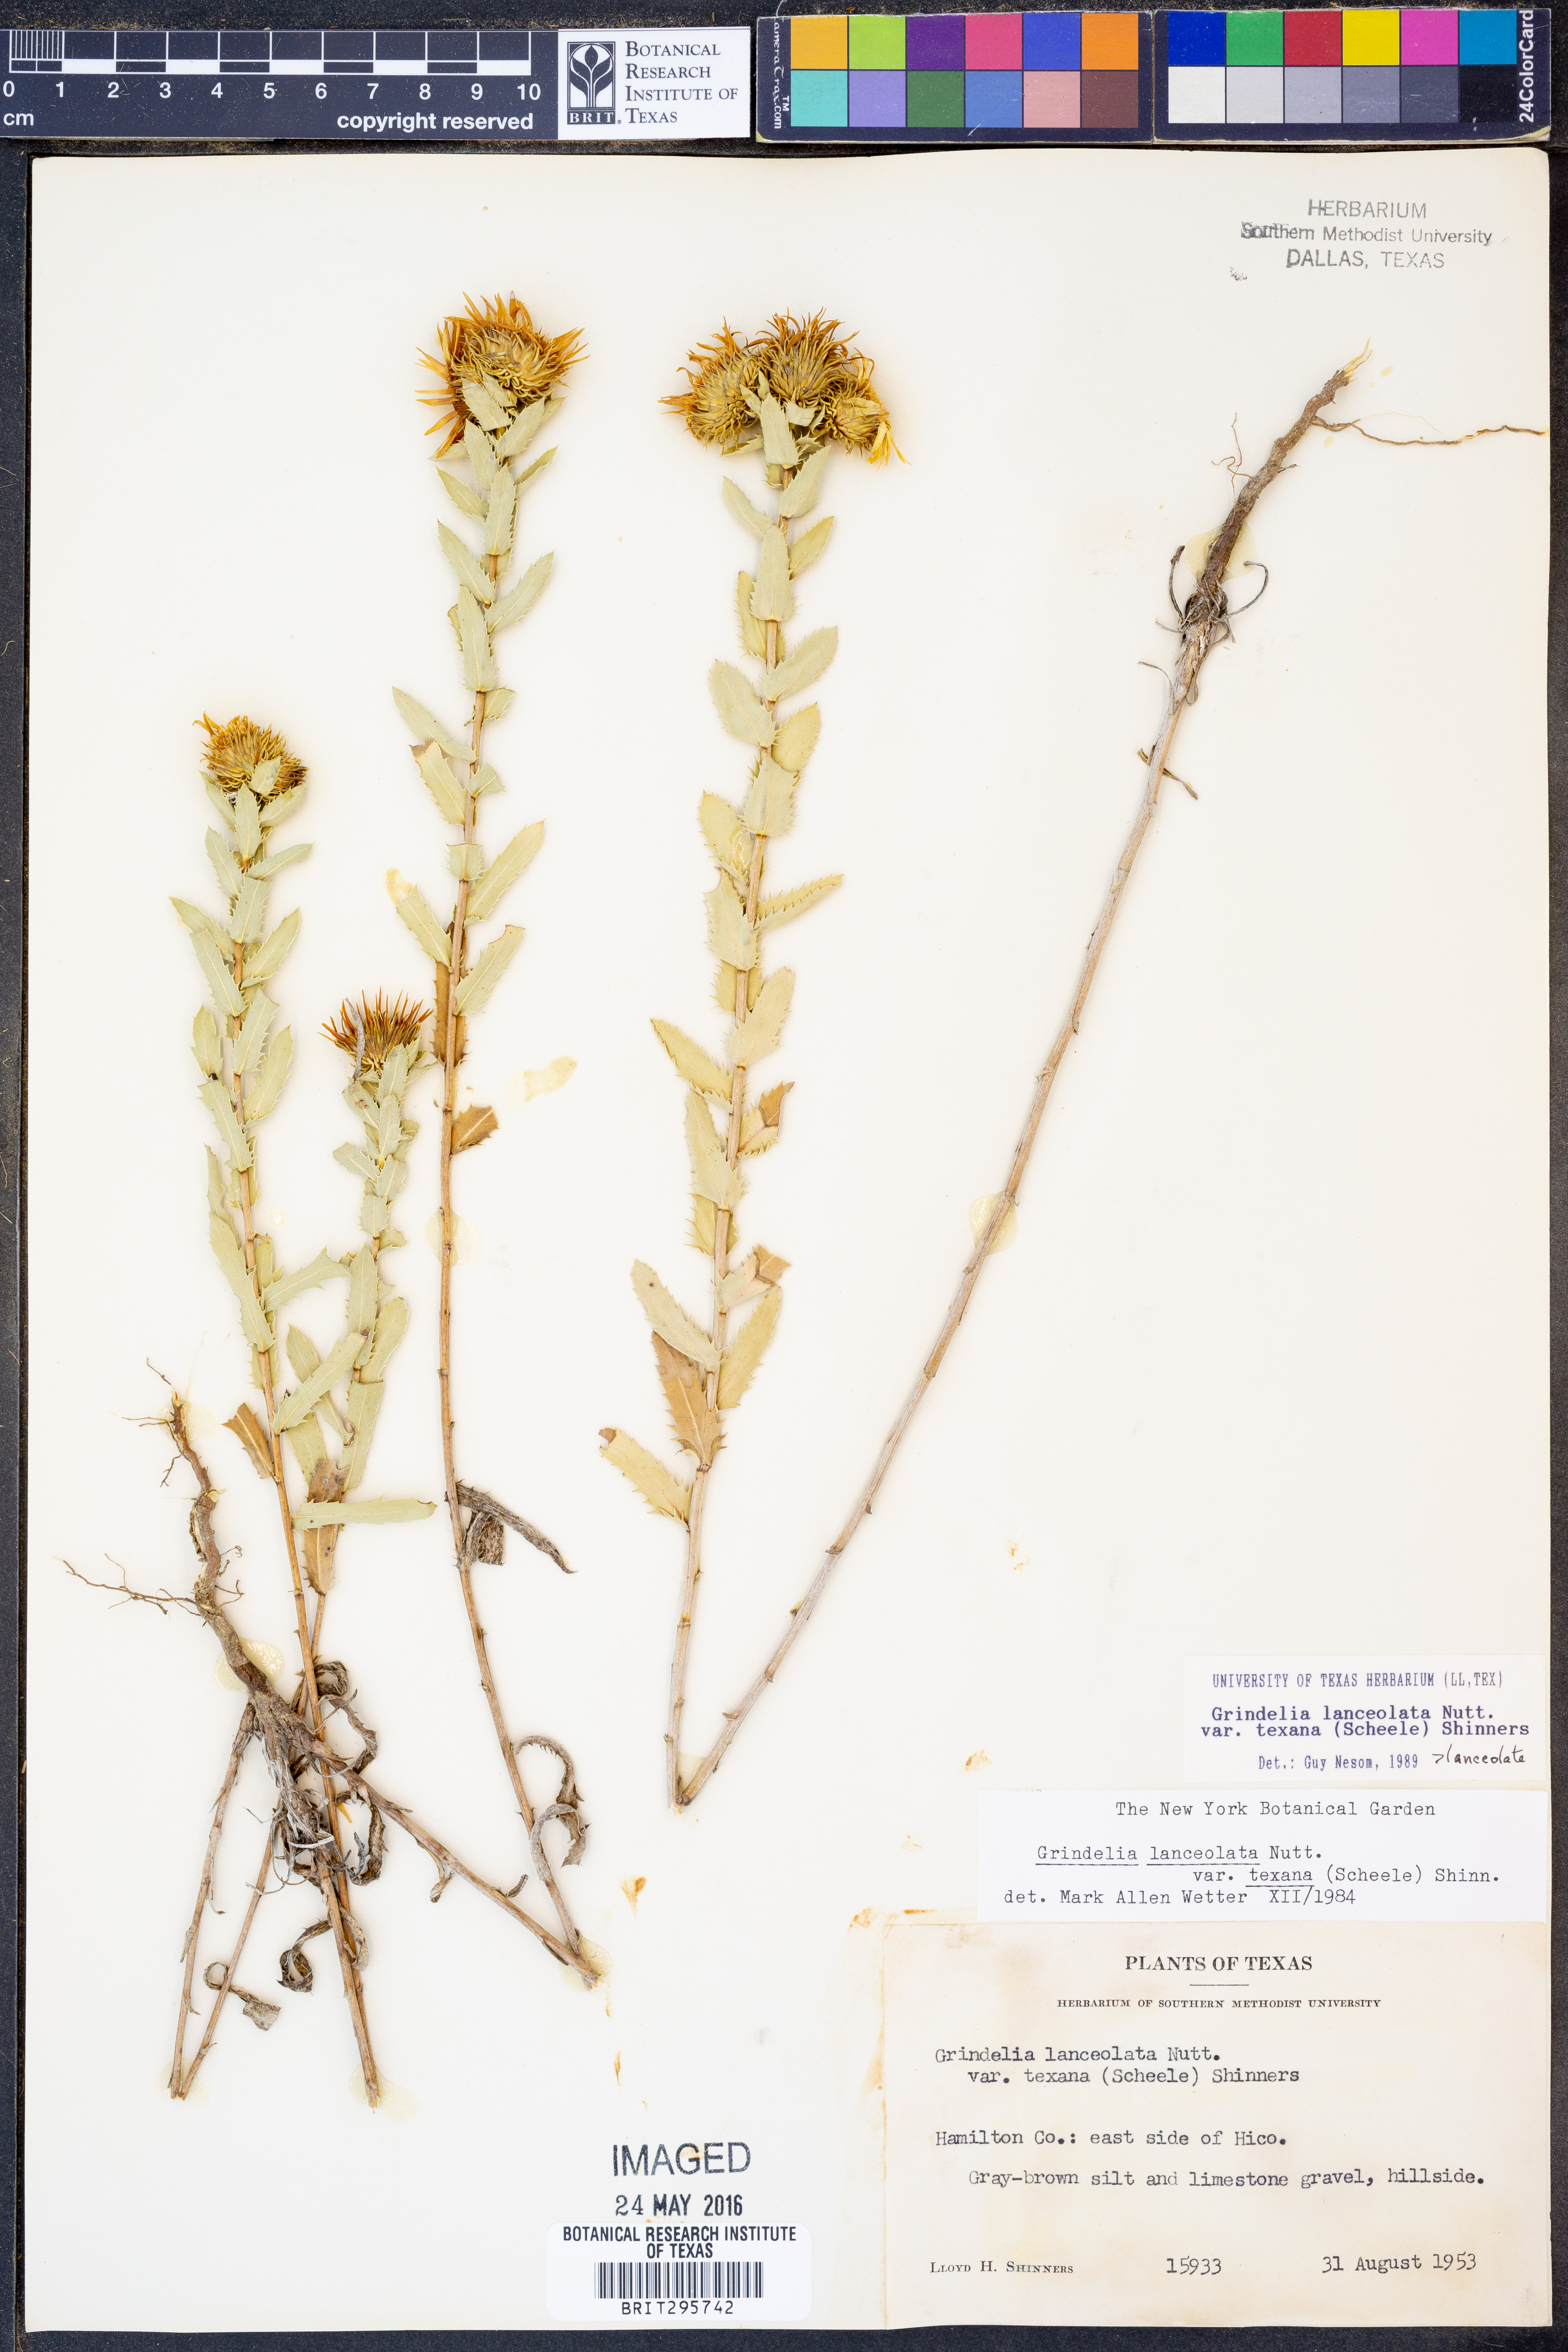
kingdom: Plantae
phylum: Tracheophyta
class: Magnoliopsida
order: Asterales
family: Asteraceae
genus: Grindelia
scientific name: Grindelia texana
